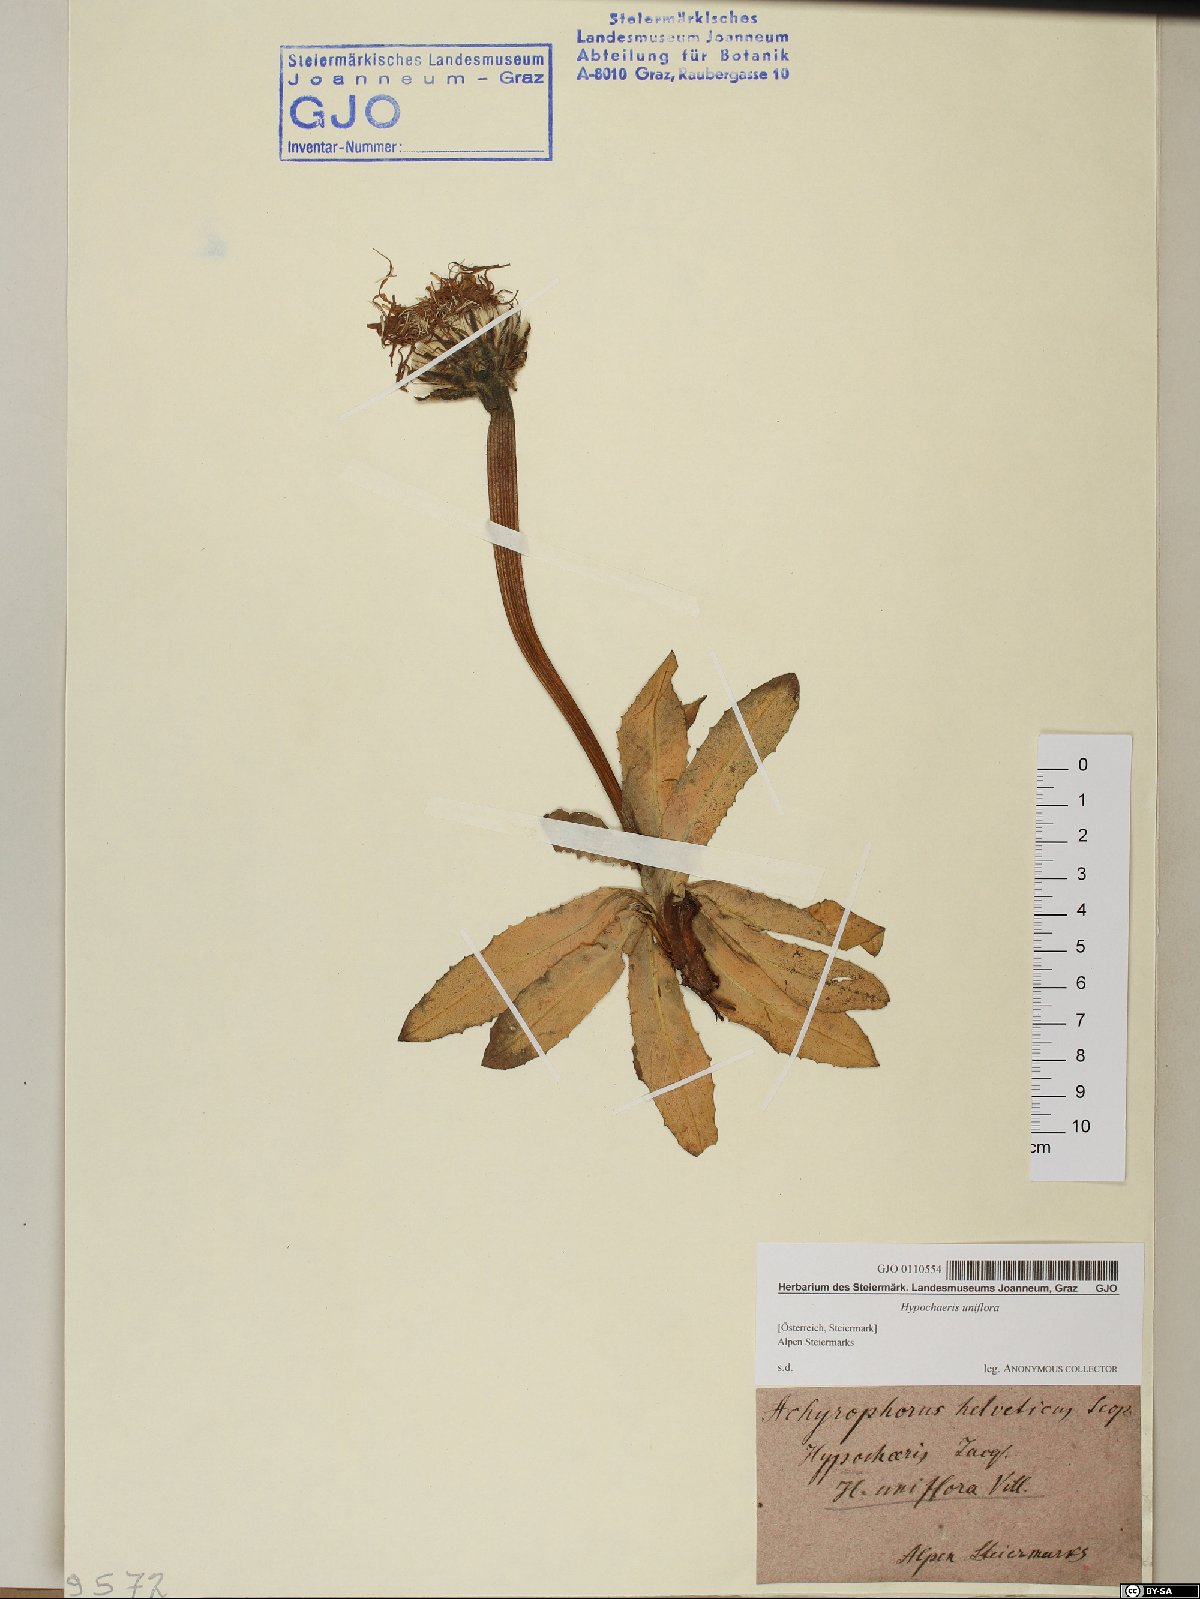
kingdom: Plantae
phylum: Tracheophyta
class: Magnoliopsida
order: Asterales
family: Asteraceae
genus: Trommsdorffia
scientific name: Trommsdorffia uniflora
